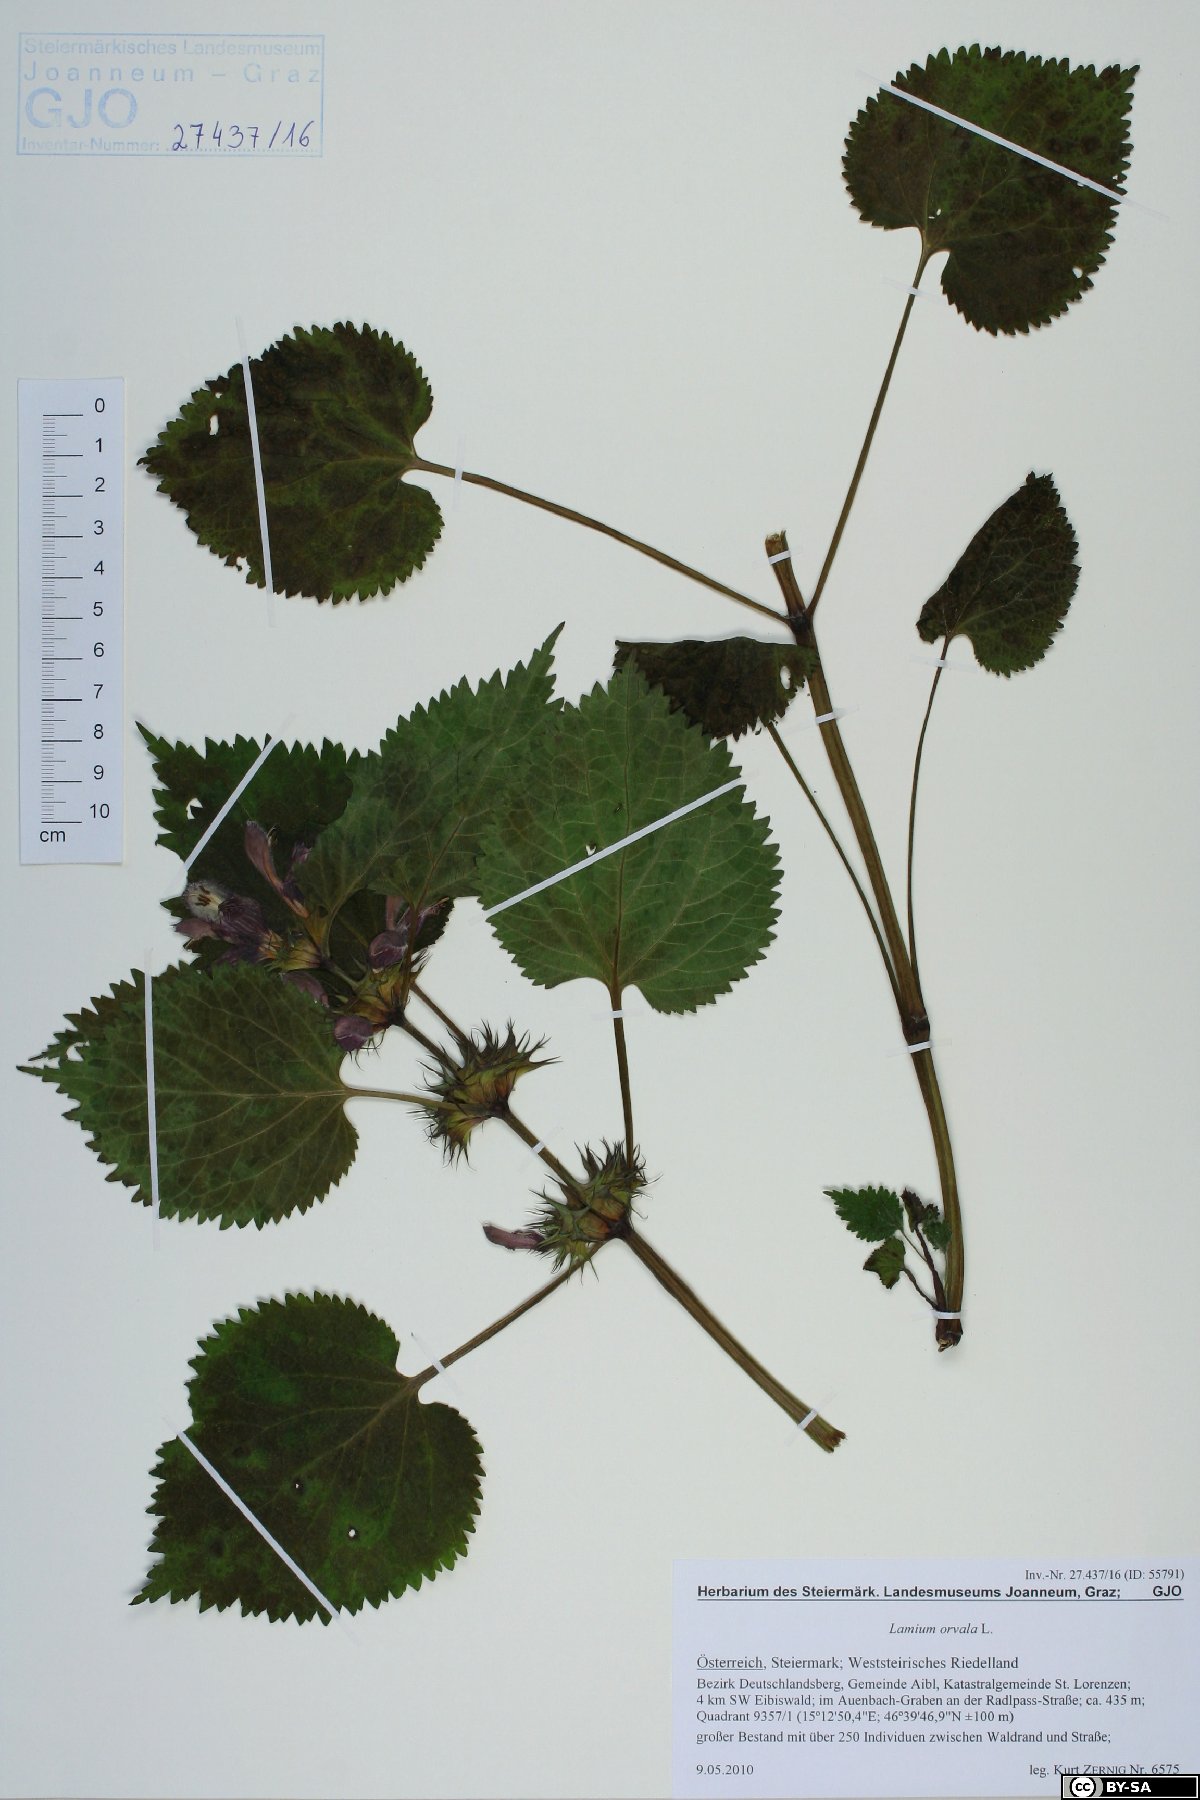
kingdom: Plantae
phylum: Tracheophyta
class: Magnoliopsida
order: Lamiales
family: Lamiaceae
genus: Lamium
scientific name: Lamium orvala
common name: Balm-leaved archangel
